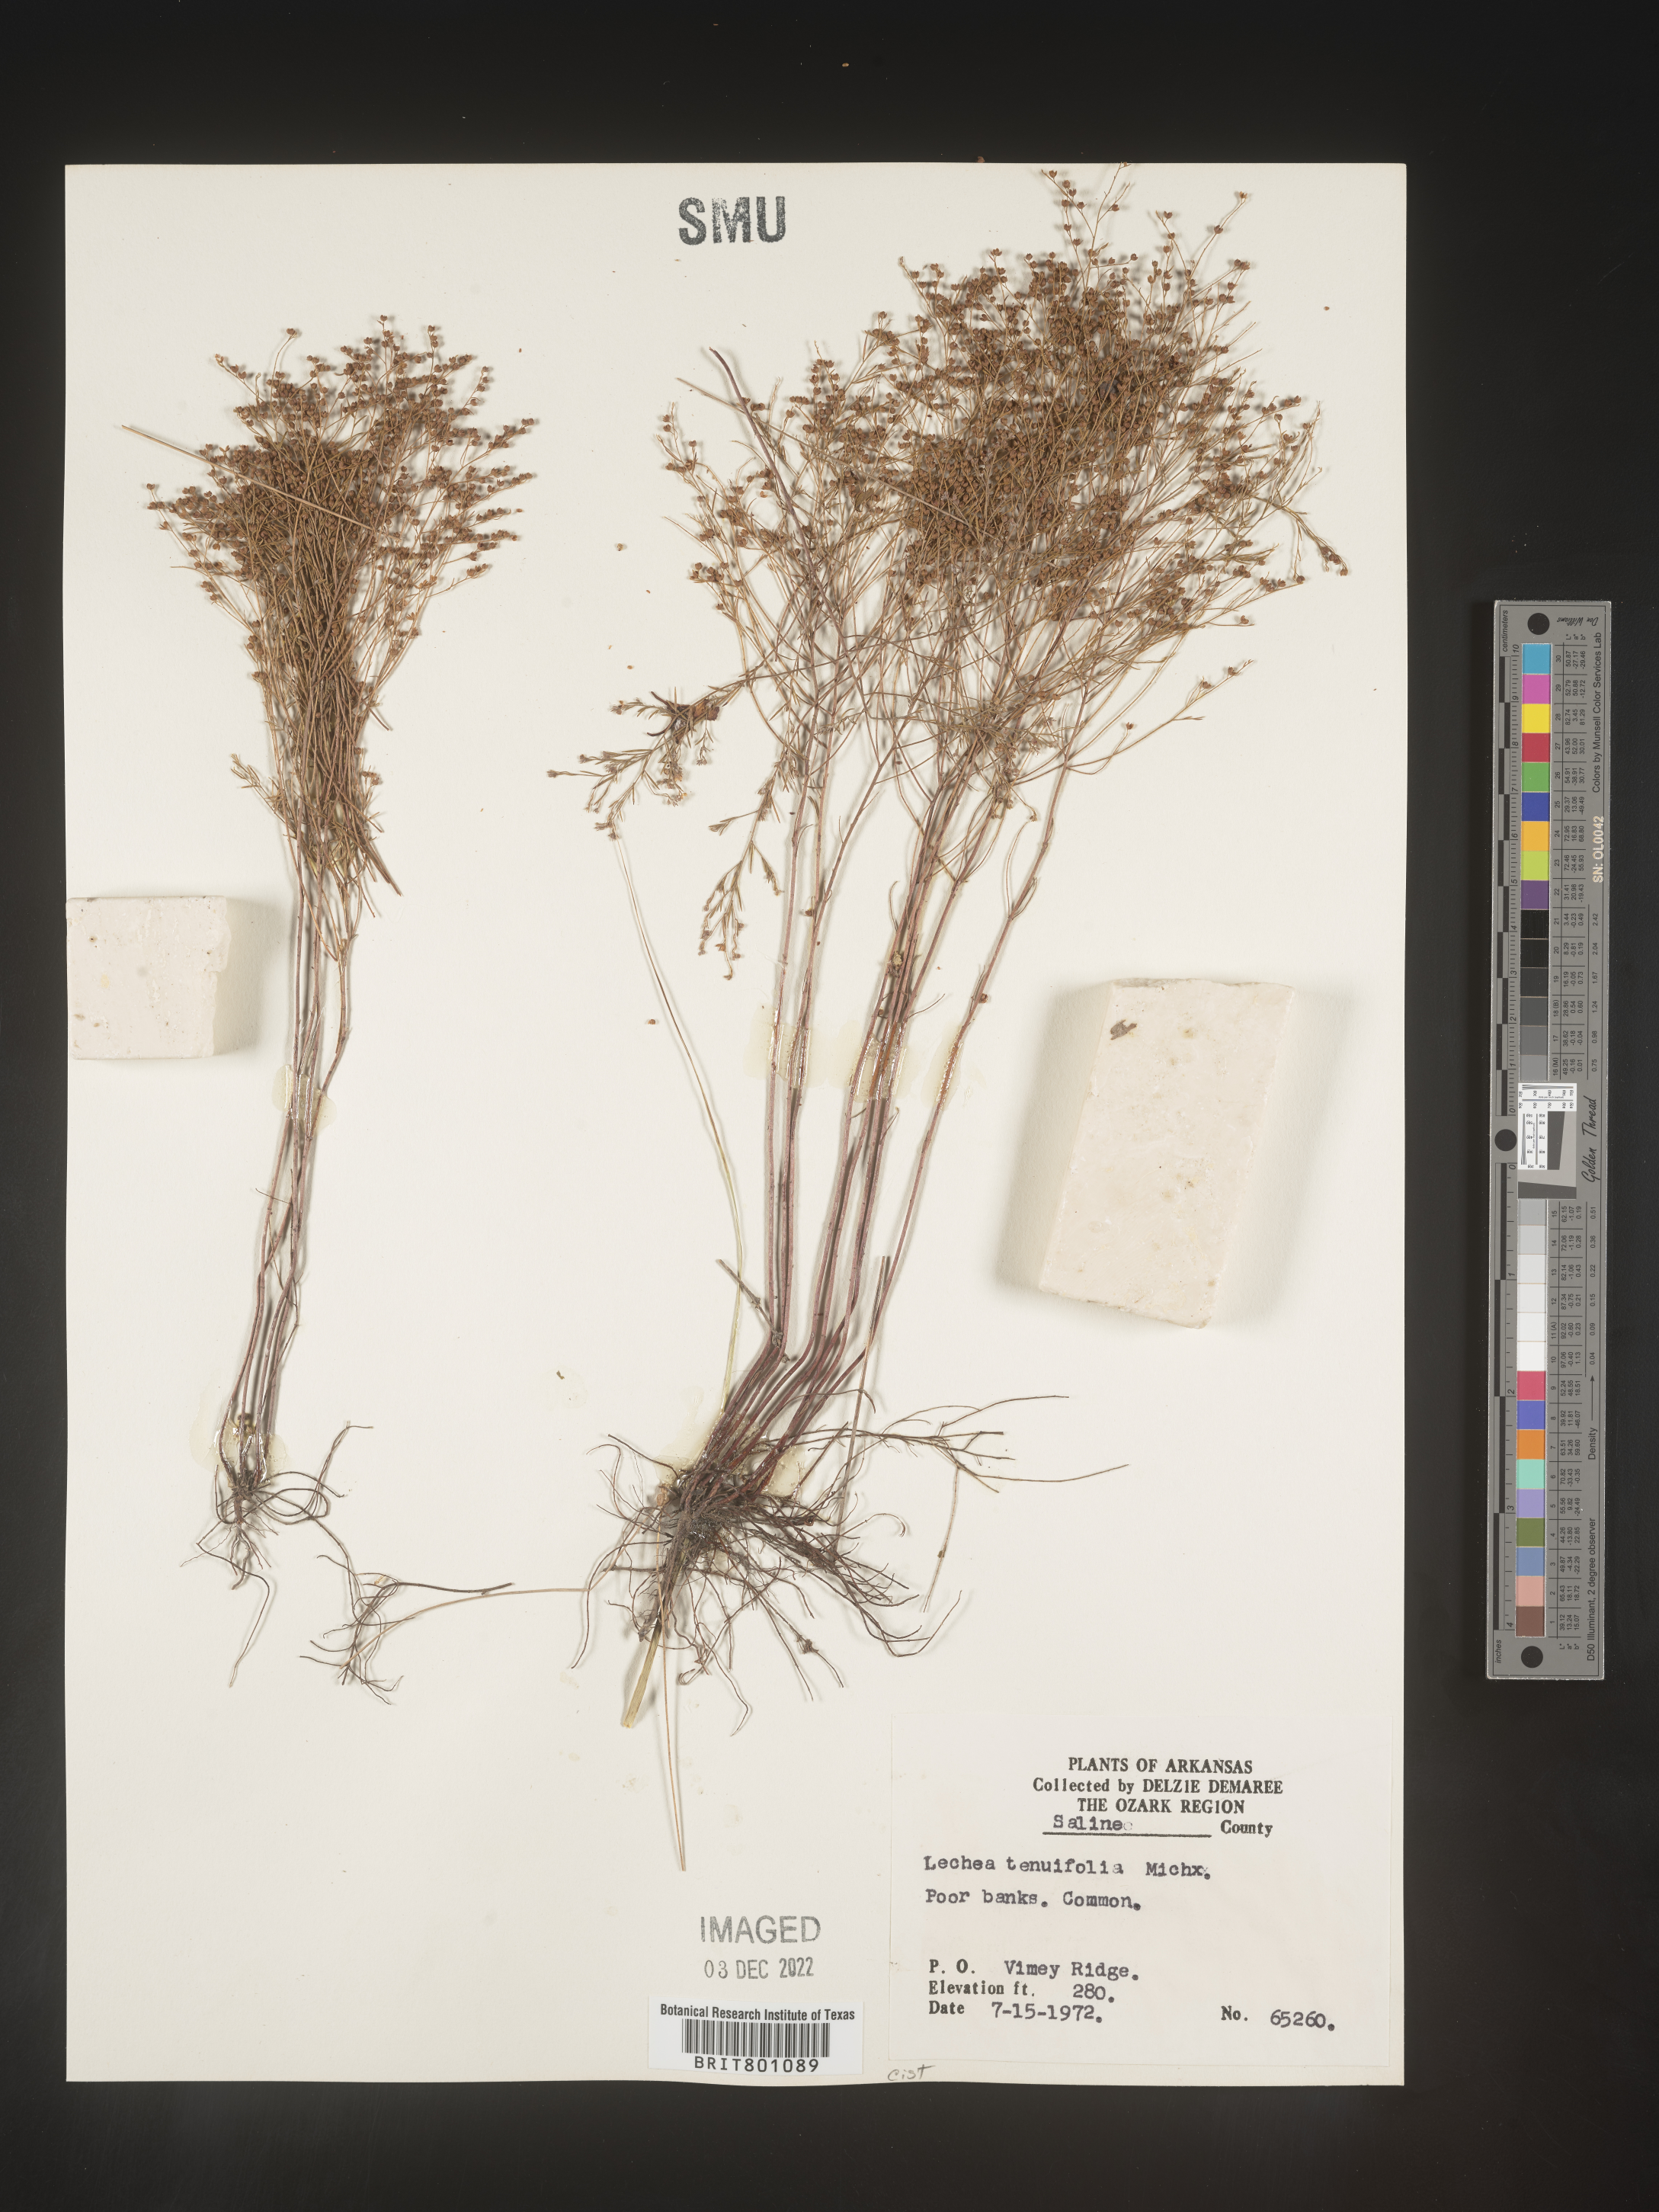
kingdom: Plantae
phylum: Tracheophyta
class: Magnoliopsida
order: Malvales
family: Cistaceae
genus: Lechea
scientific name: Lechea tenuifolia
